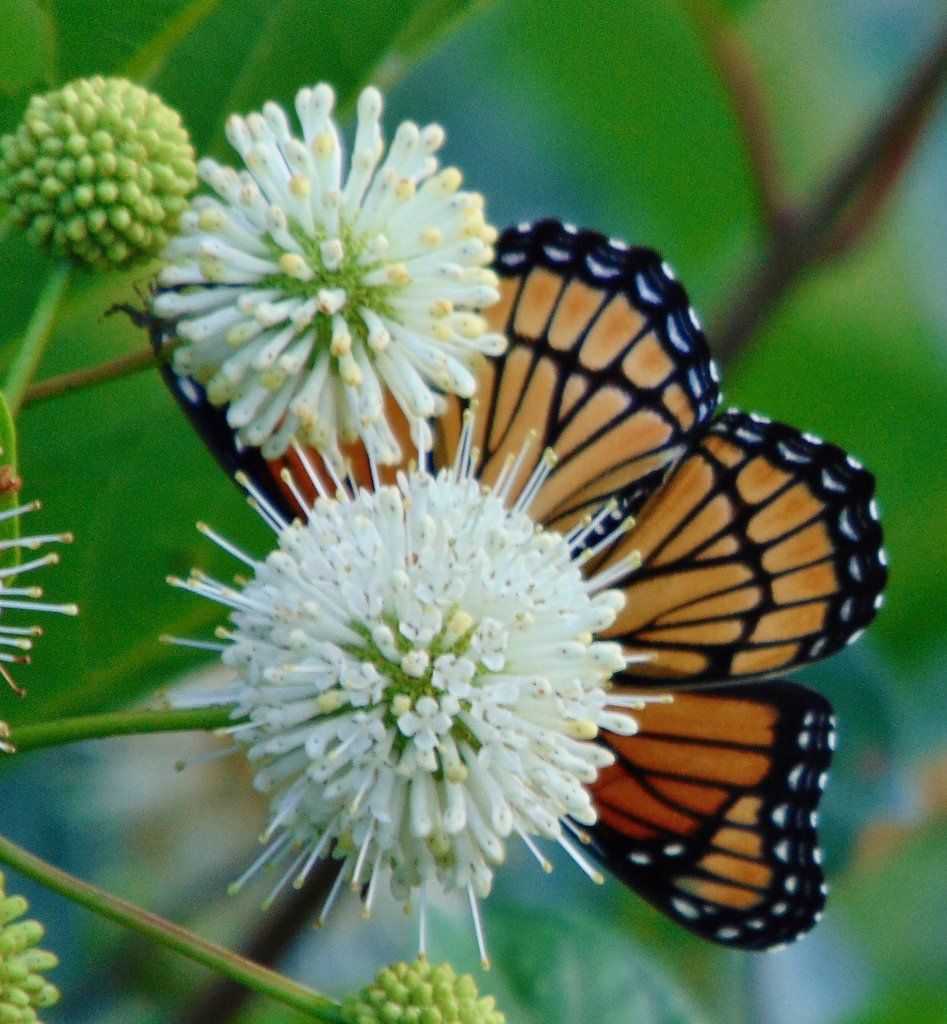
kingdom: Animalia
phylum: Arthropoda
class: Insecta
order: Lepidoptera
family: Nymphalidae
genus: Limenitis
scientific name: Limenitis archippus
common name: Viceroy
